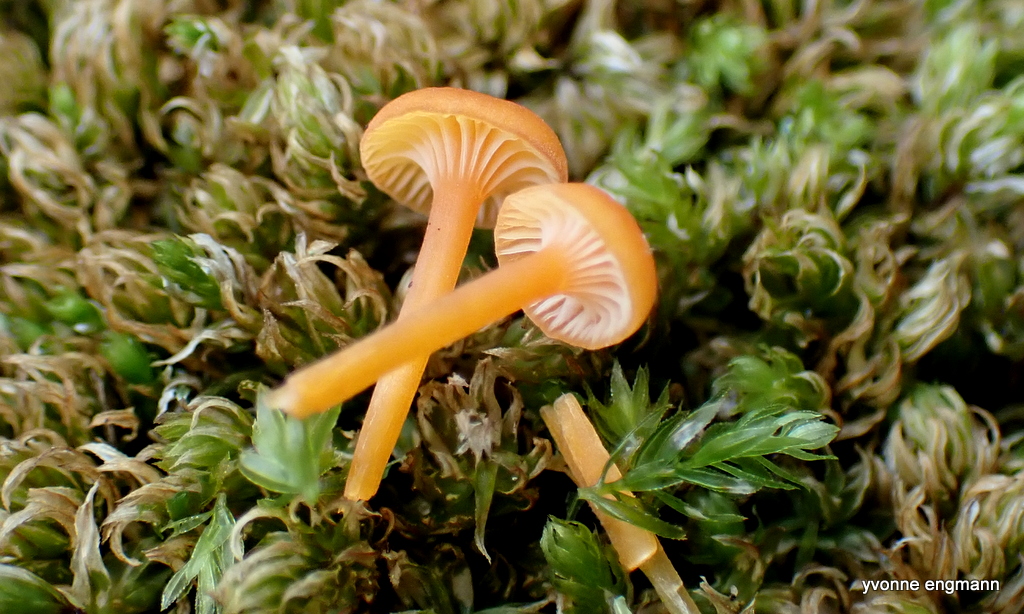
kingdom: Fungi
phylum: Basidiomycota
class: Agaricomycetes
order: Hymenochaetales
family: Rickenellaceae
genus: Rickenella
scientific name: Rickenella fibula
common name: orange mosnavlehat
